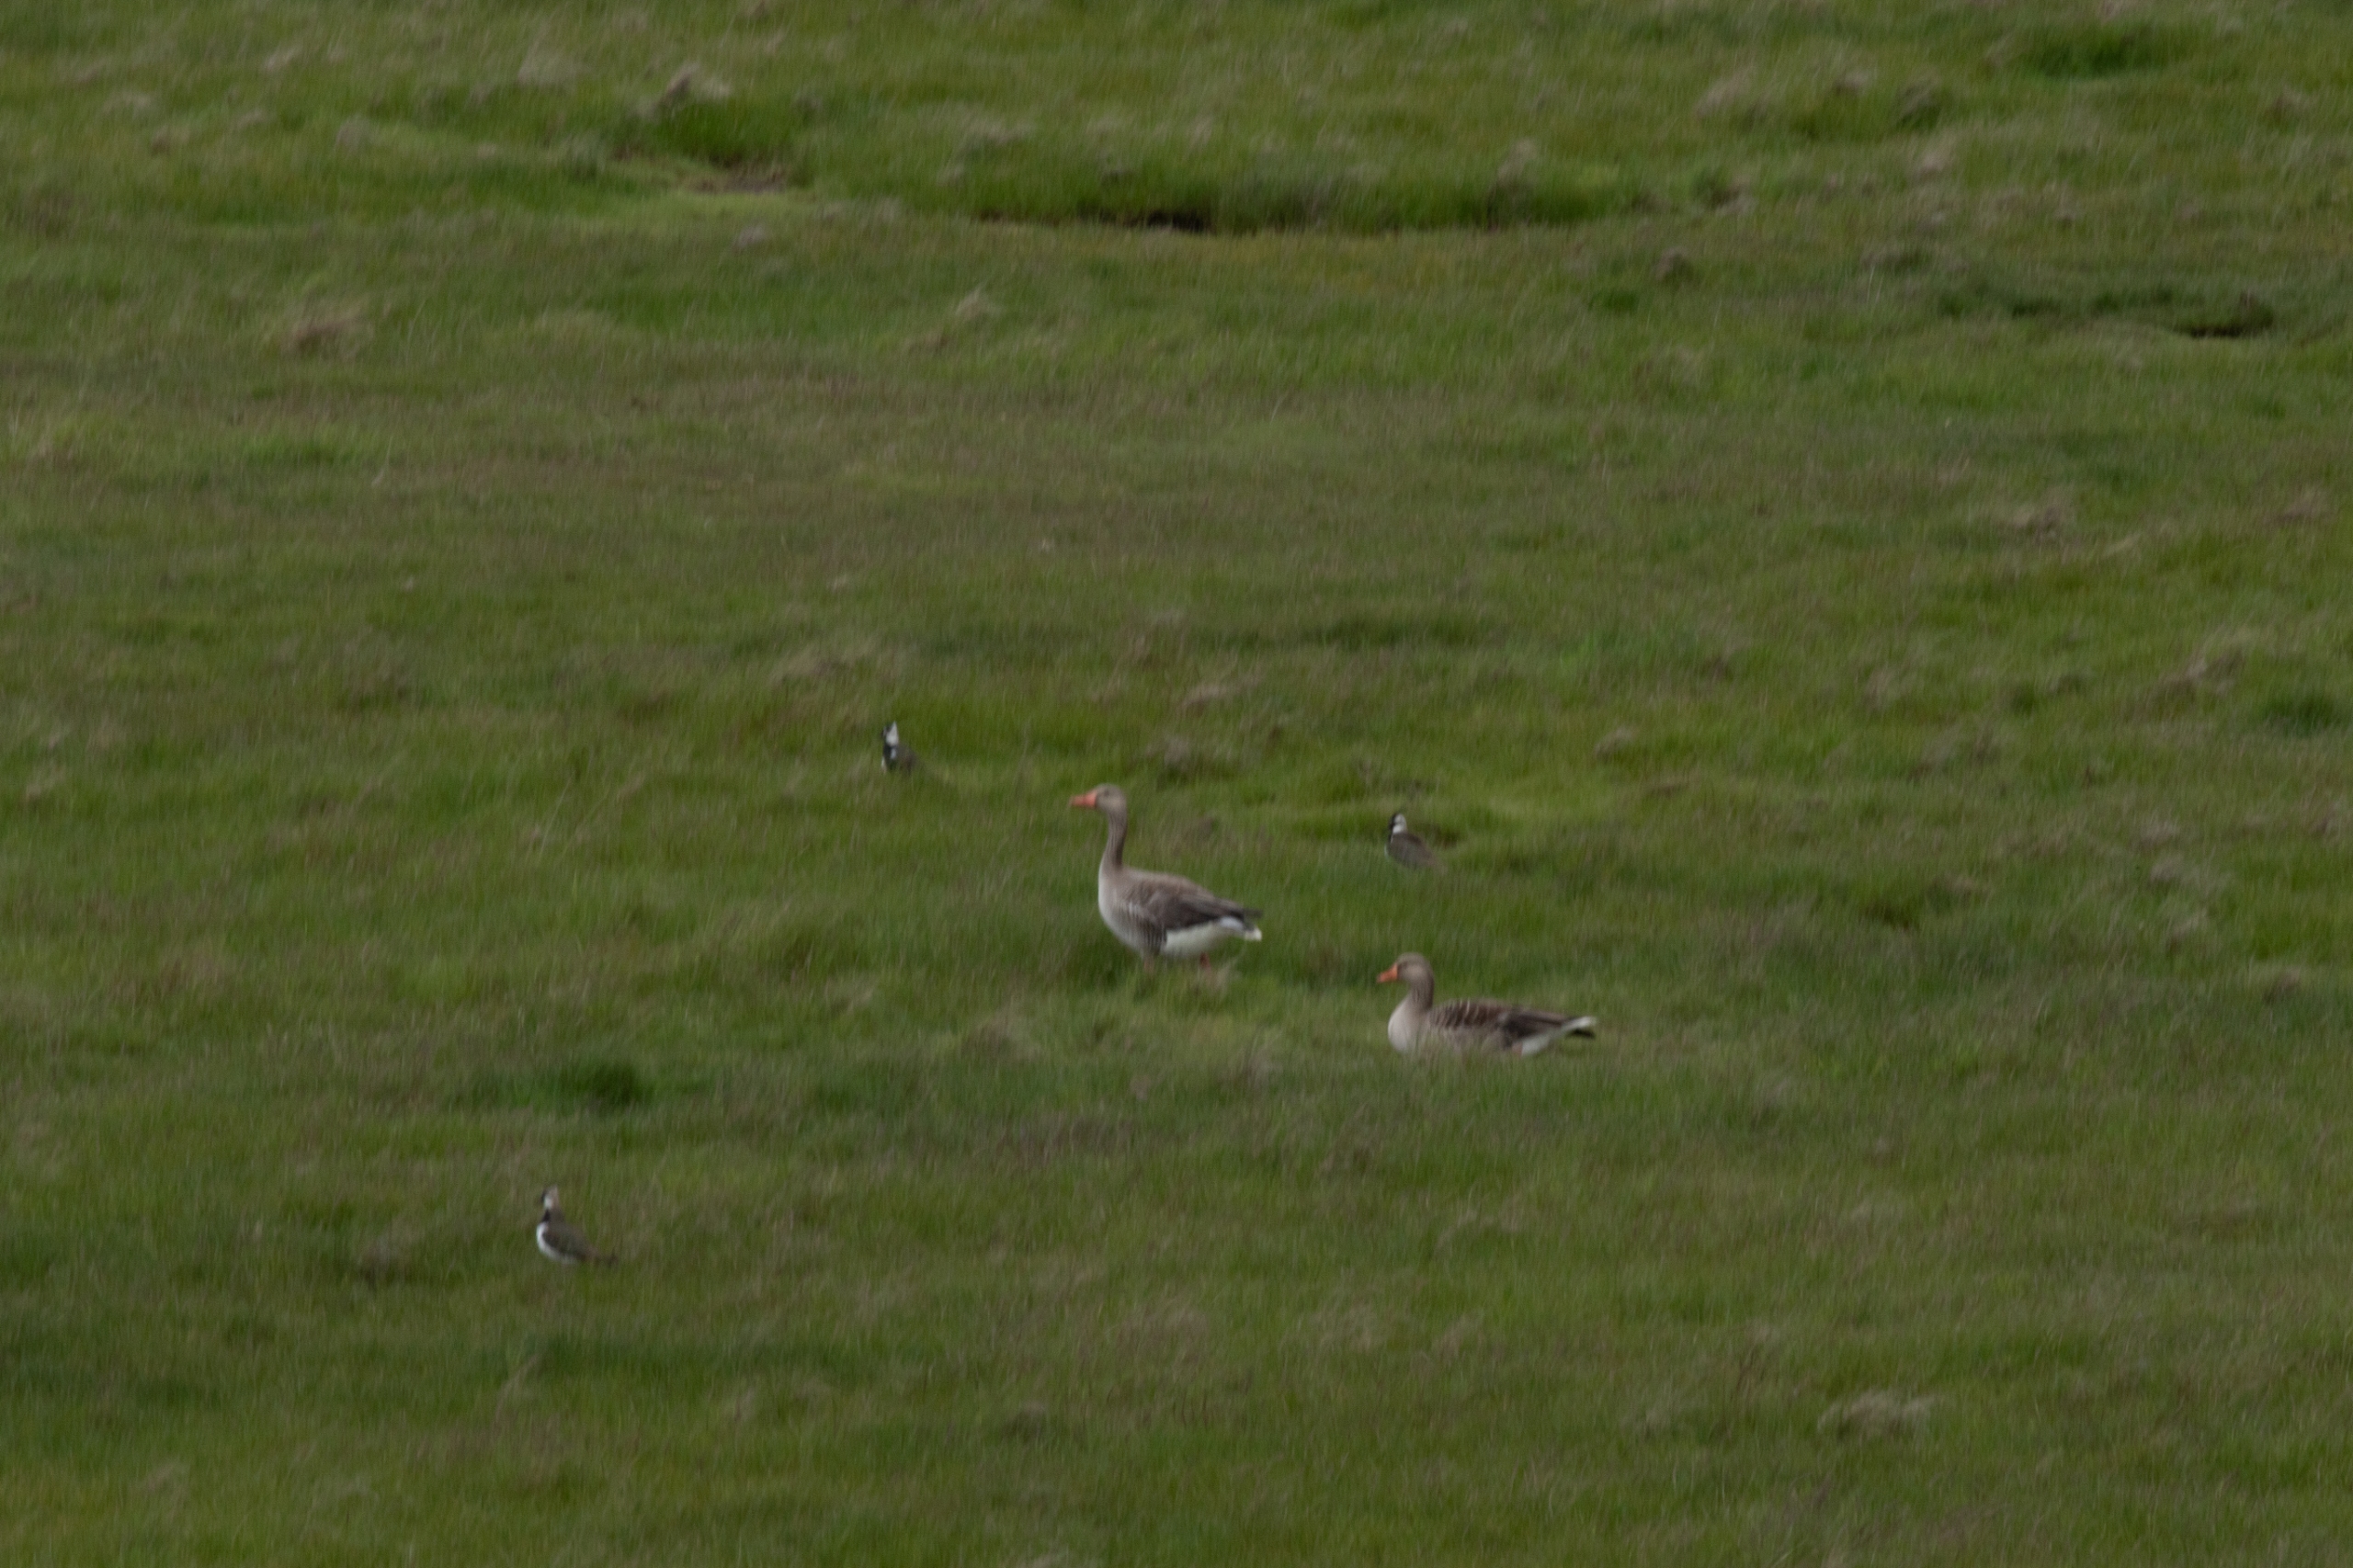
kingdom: Animalia
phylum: Chordata
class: Aves
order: Anseriformes
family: Anatidae
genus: Anser
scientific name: Anser anser
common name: Grågås
